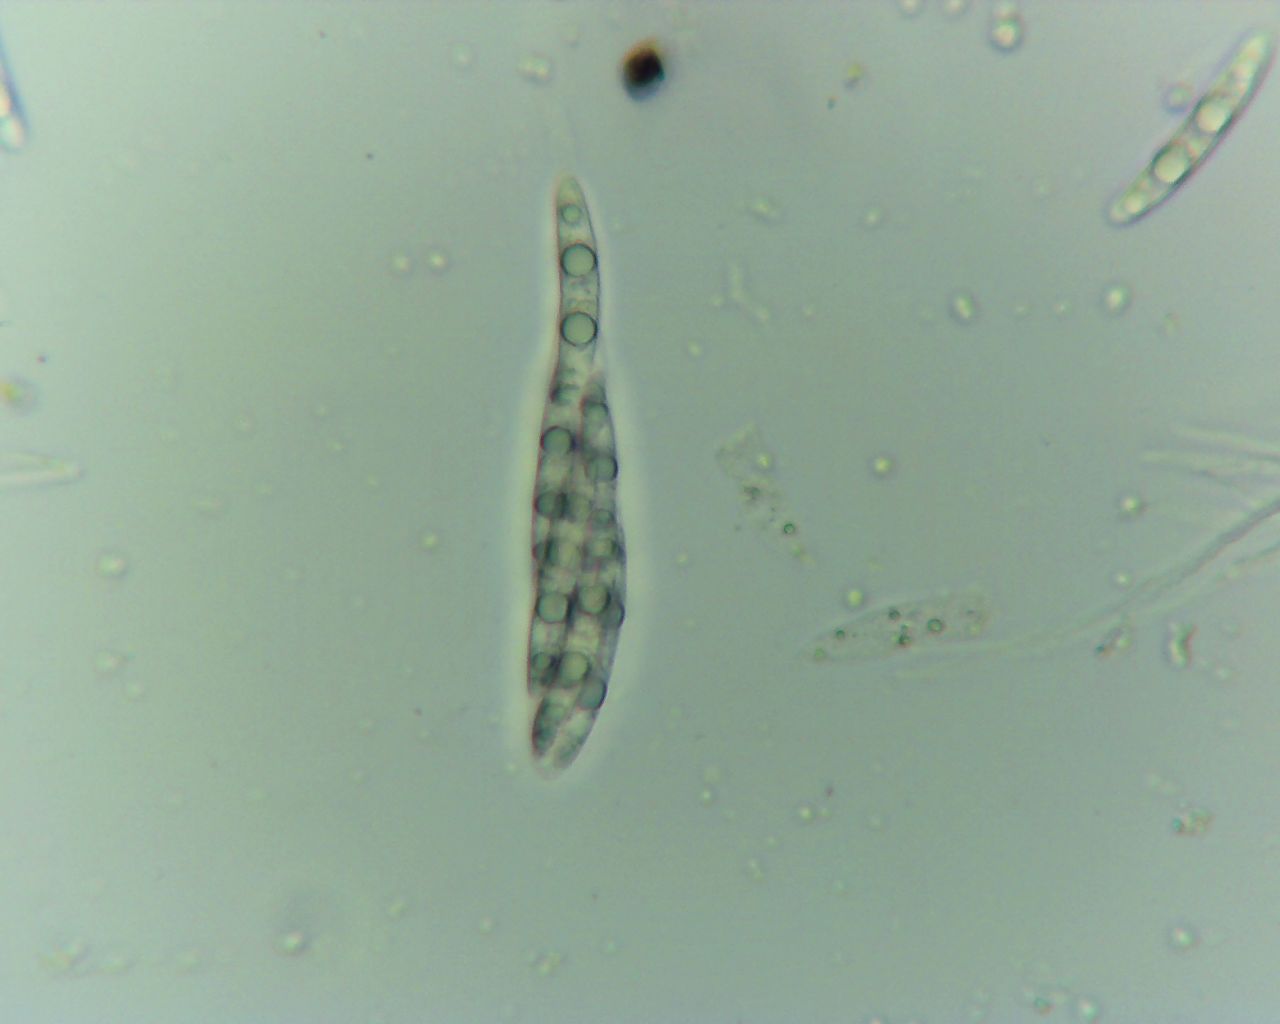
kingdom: Fungi
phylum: Ascomycota
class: Sordariomycetes
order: Coronophorales
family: Bertiaceae
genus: Bertia
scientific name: Bertia moriformis
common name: almindelig morbærkerne
